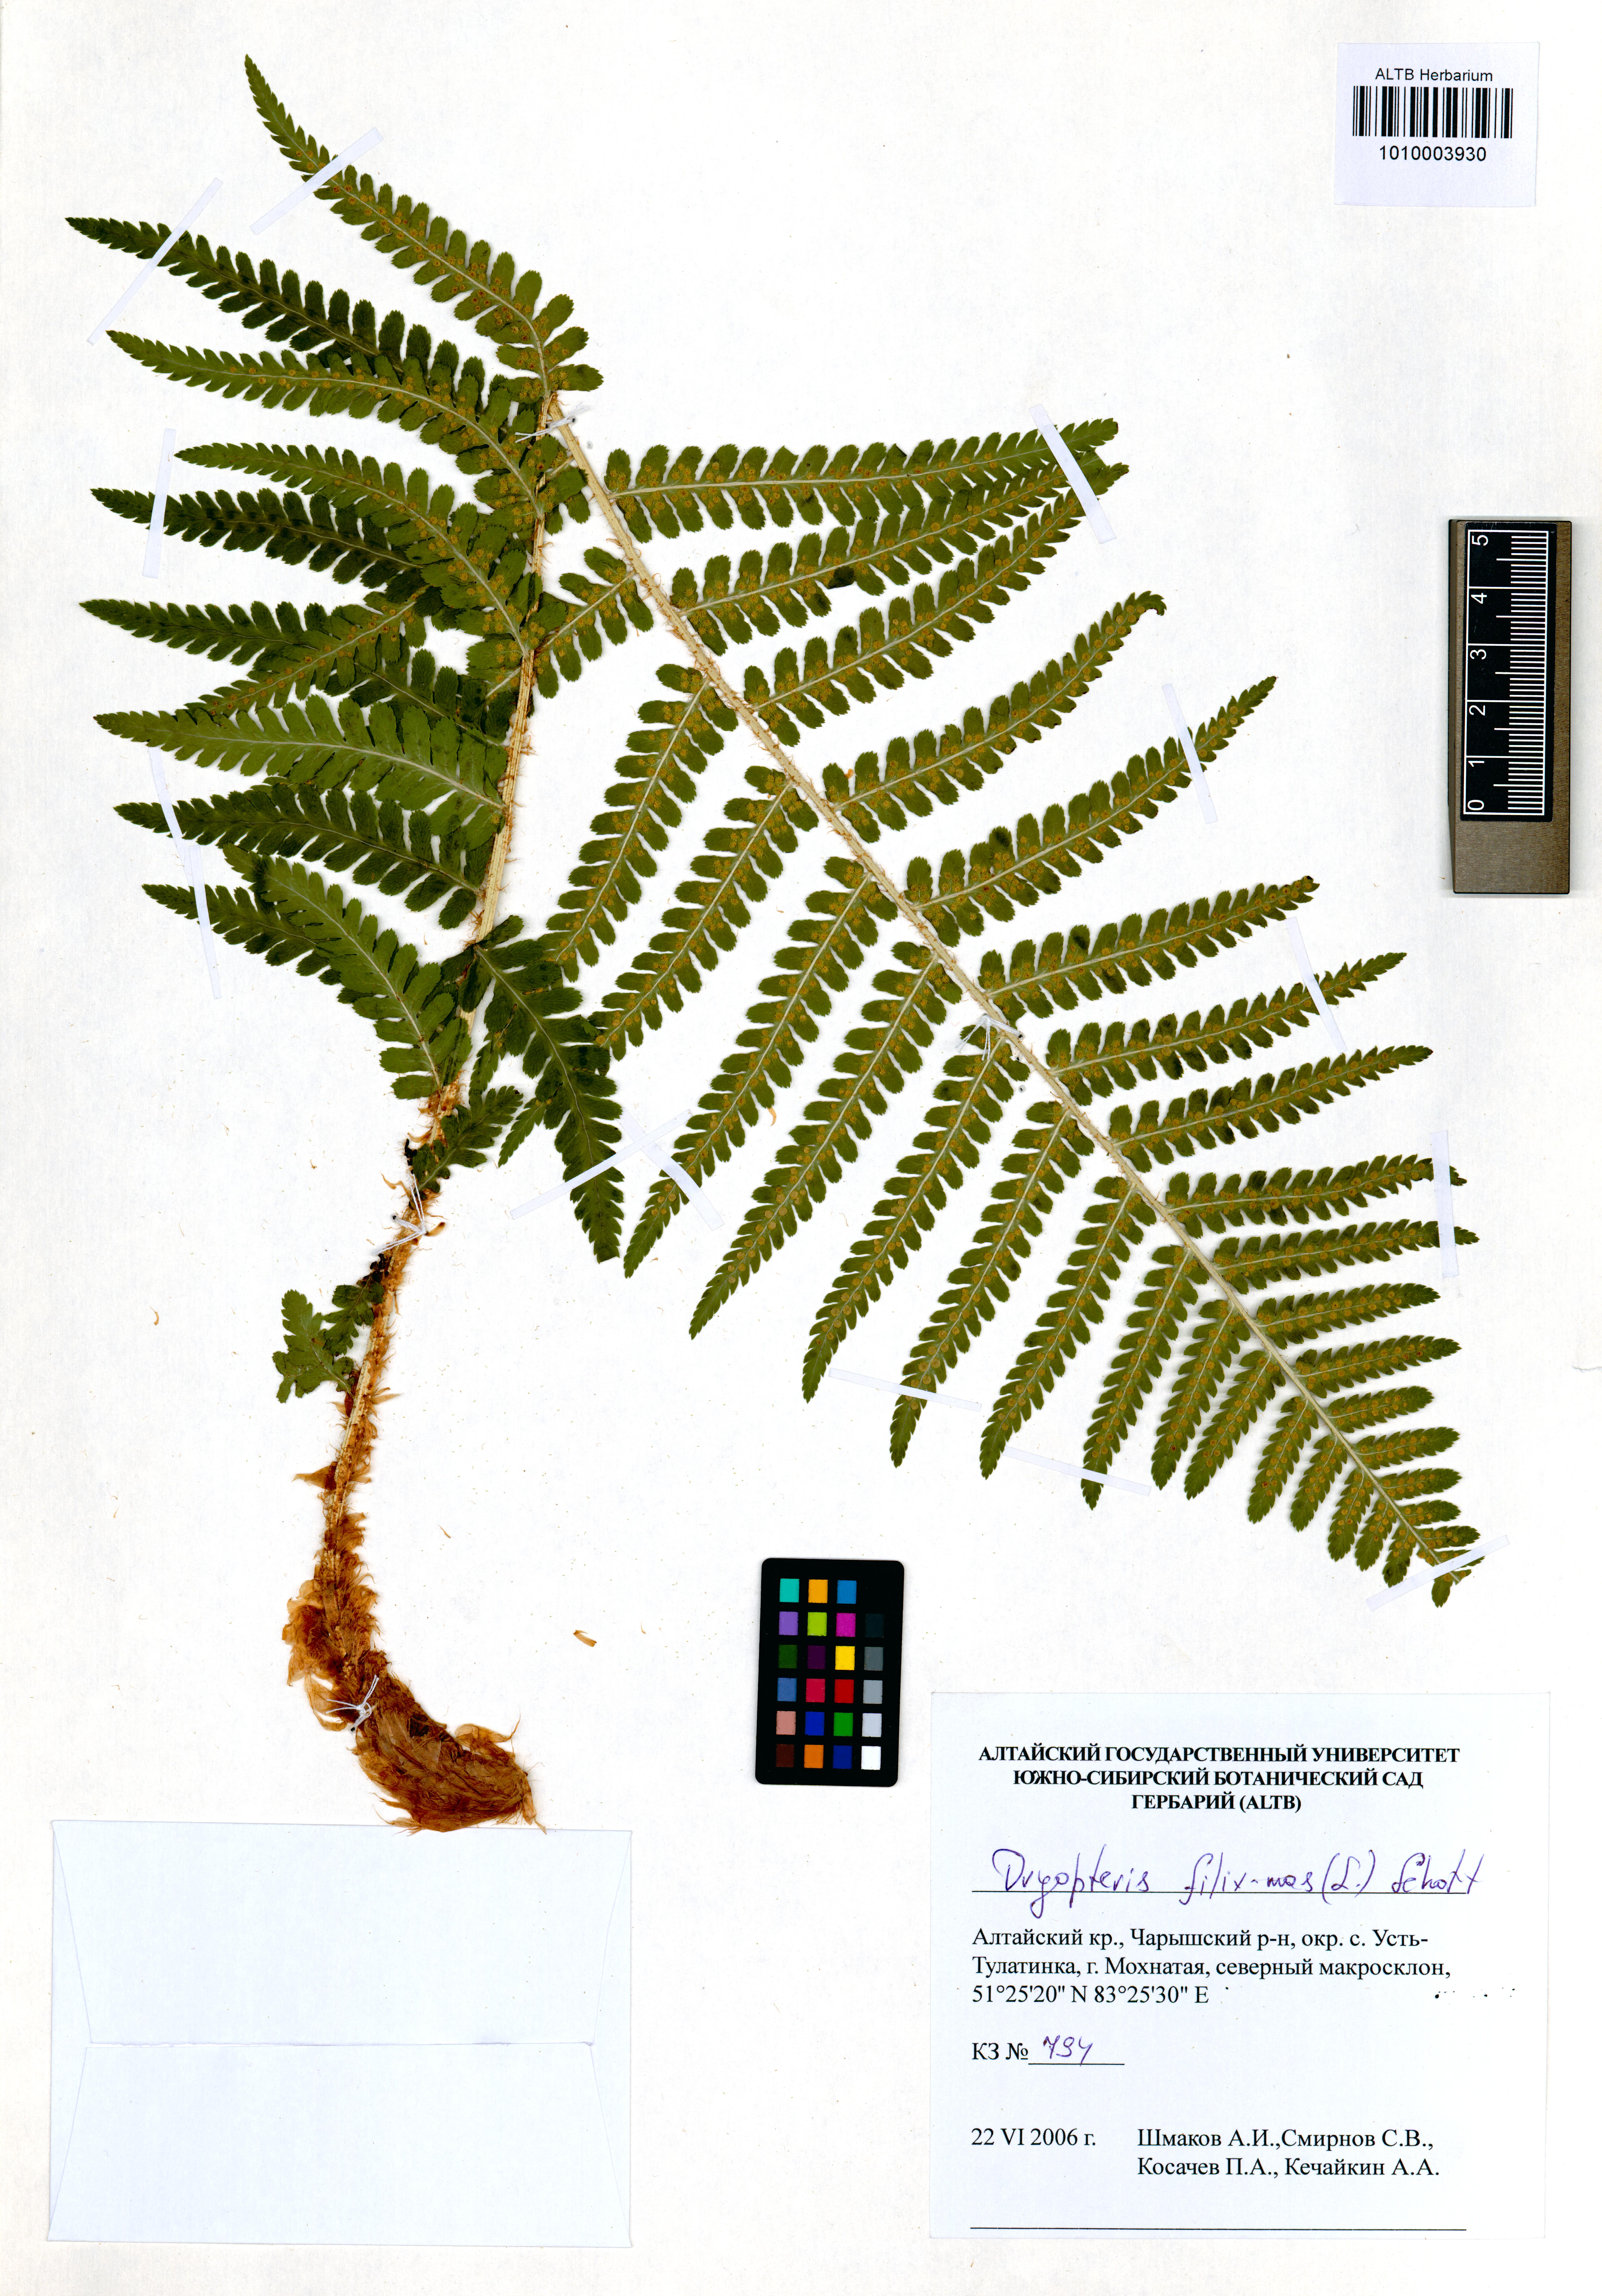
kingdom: Plantae
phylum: Tracheophyta
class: Polypodiopsida
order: Polypodiales
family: Dryopteridaceae
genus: Dryopteris
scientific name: Dryopteris filix-mas
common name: Male fern
